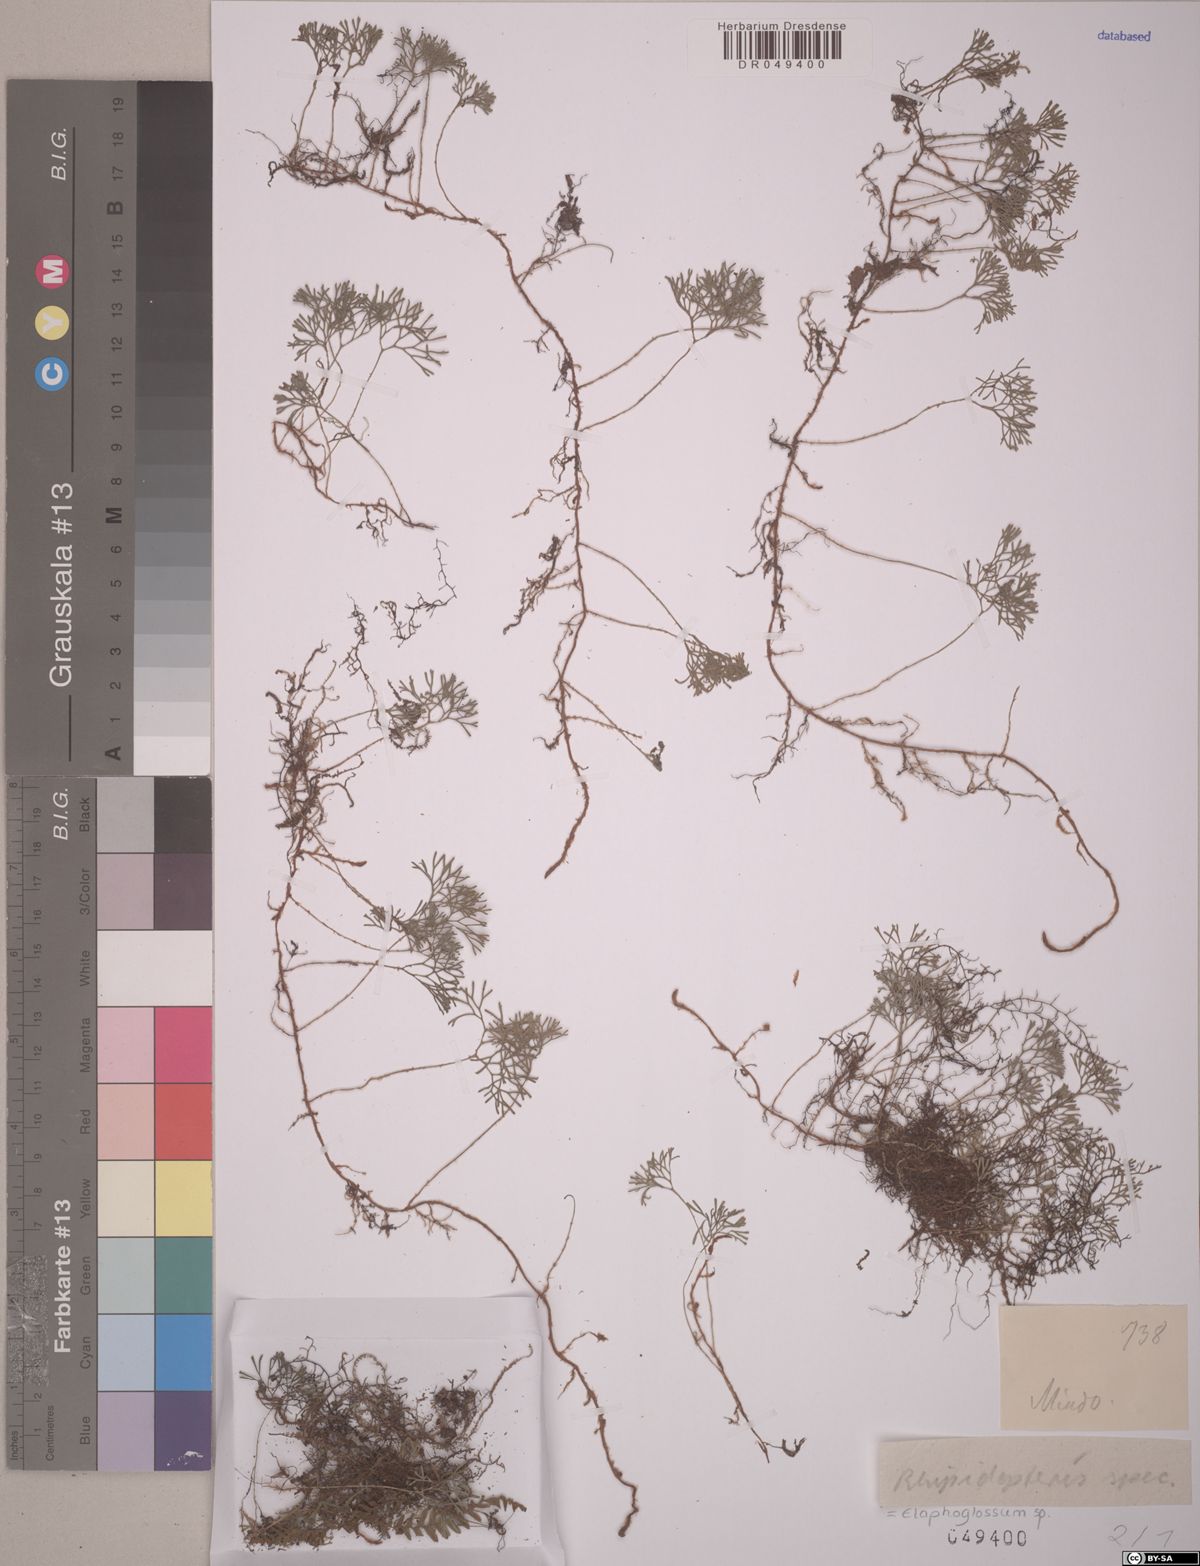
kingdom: Plantae
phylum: Tracheophyta
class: Polypodiopsida
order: Polypodiales
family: Dryopteridaceae
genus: Elaphoglossum
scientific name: Elaphoglossum
